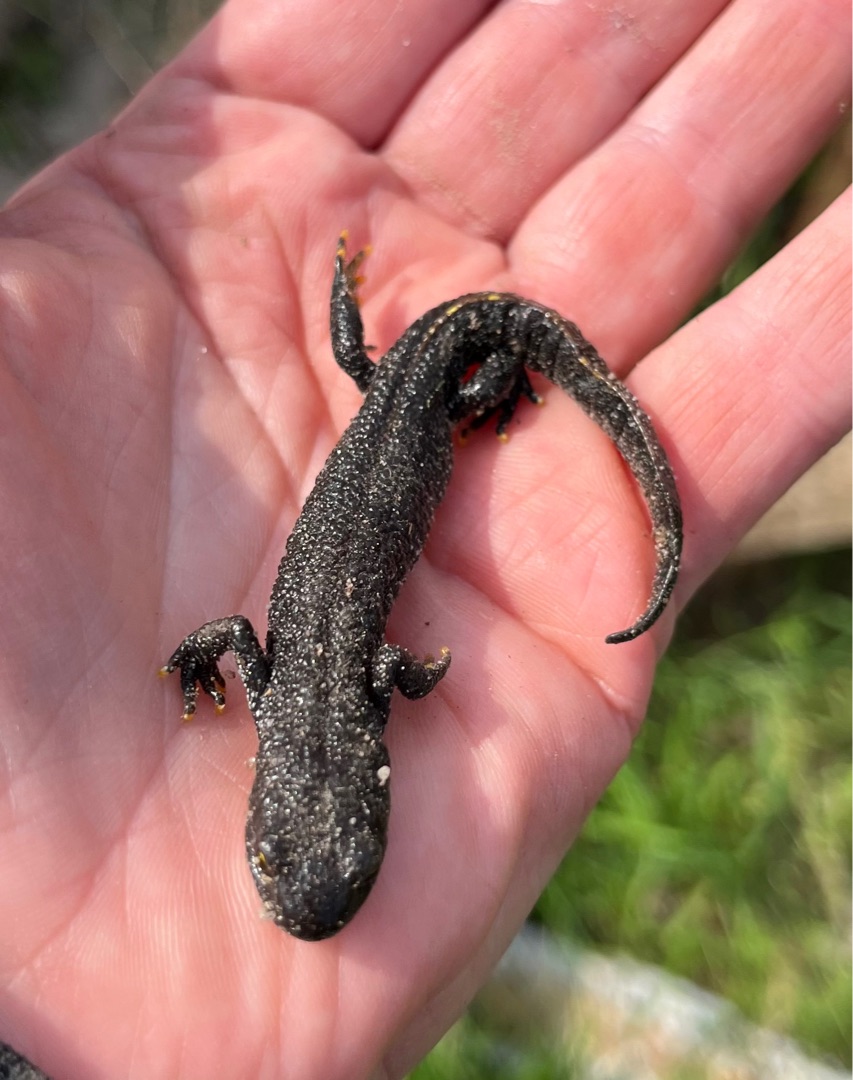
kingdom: Animalia
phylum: Chordata
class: Amphibia
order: Caudata
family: Salamandridae
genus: Triturus
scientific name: Triturus cristatus
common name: Stor vandsalamander
